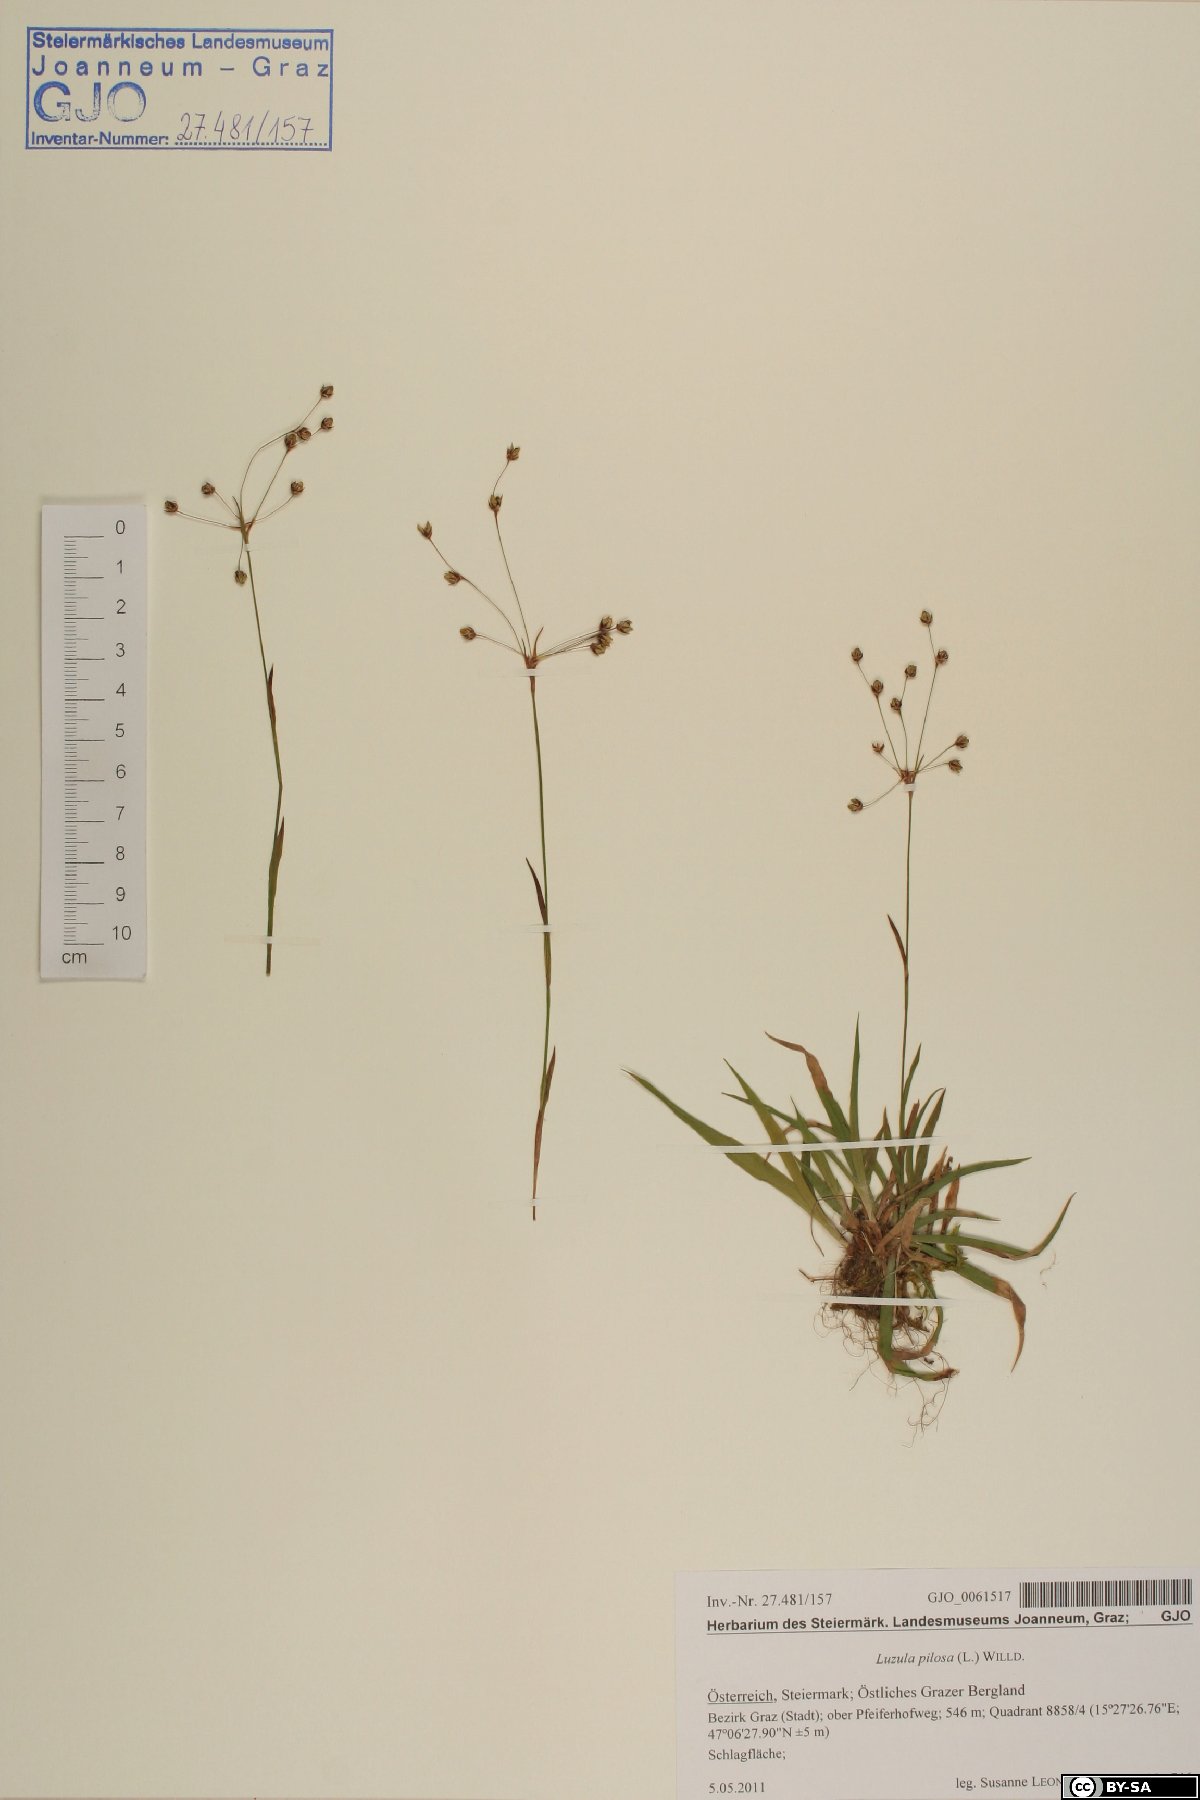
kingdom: Plantae
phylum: Tracheophyta
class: Liliopsida
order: Poales
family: Juncaceae
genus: Luzula
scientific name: Luzula pilosa
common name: Hairy wood-rush
